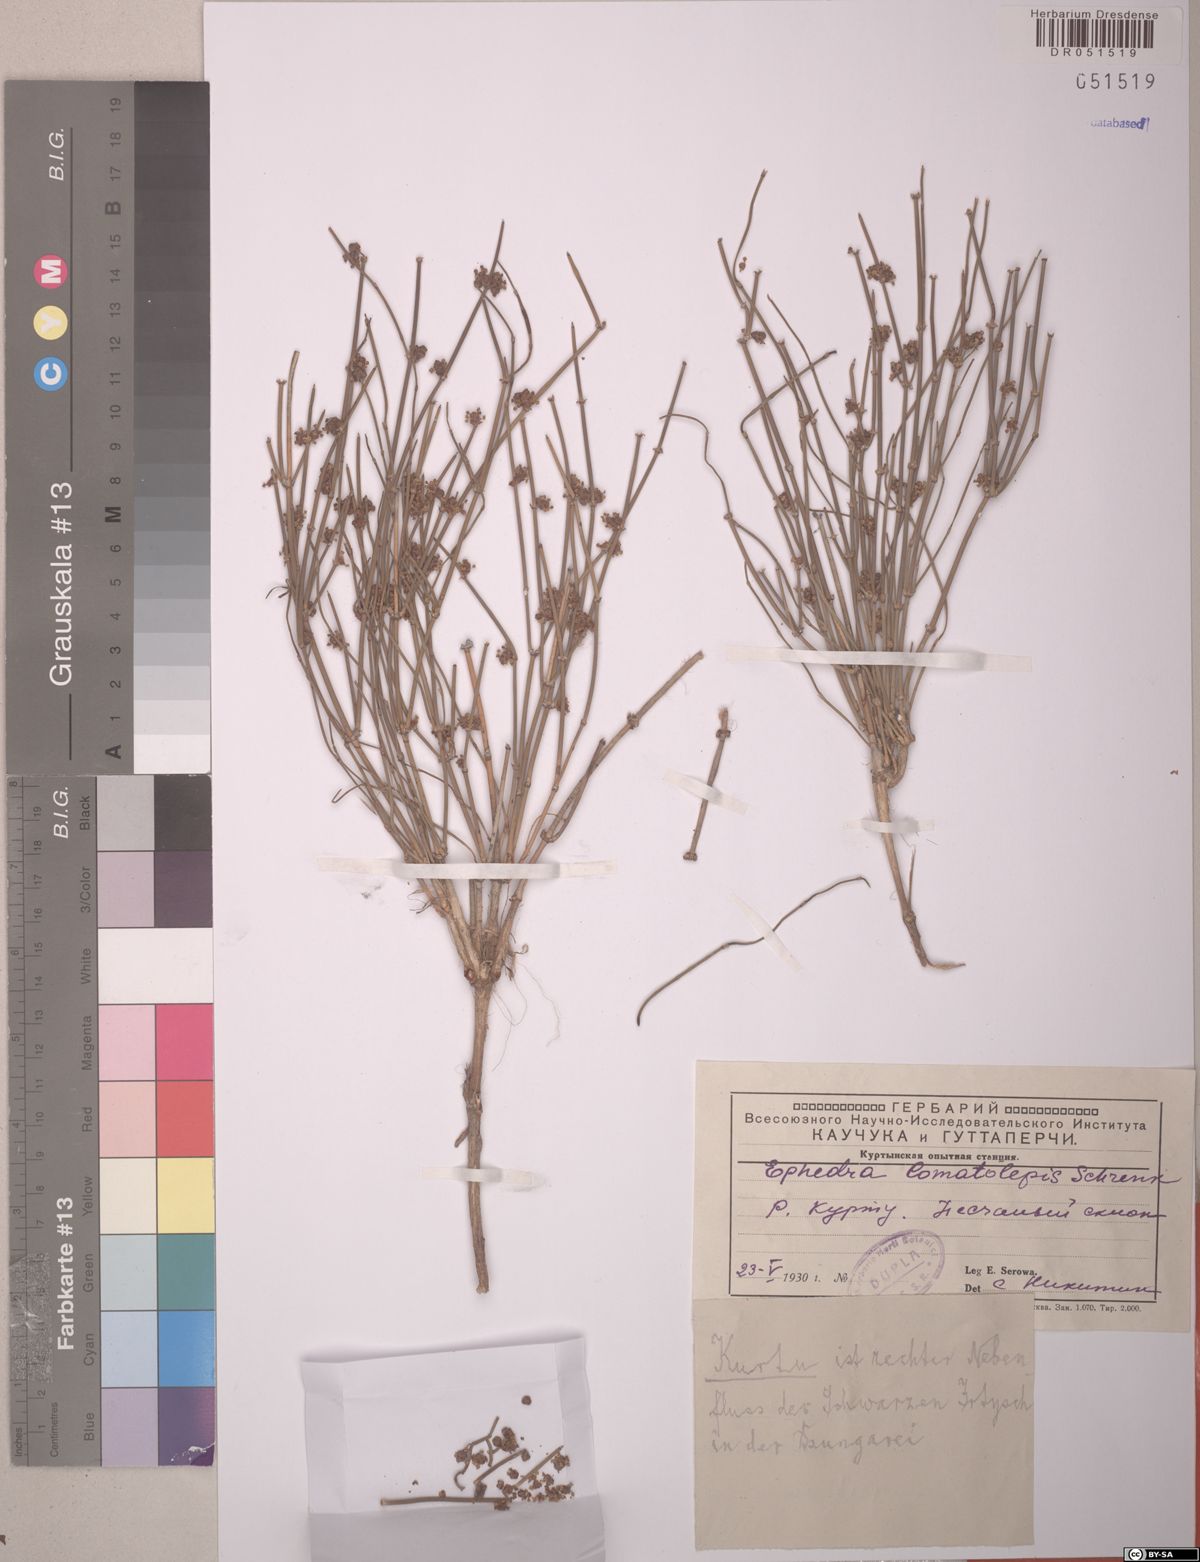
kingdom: Plantae
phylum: Tracheophyta
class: Gnetopsida
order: Ephedrales
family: Ephedraceae
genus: Ephedra
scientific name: Ephedra lomatolepis
